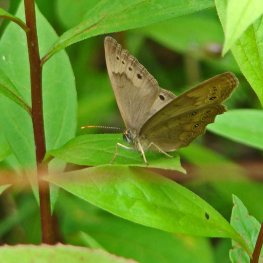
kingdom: Animalia
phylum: Arthropoda
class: Insecta
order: Lepidoptera
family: Nymphalidae
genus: Lethe
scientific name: Lethe eurydice
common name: Eyed Brown
